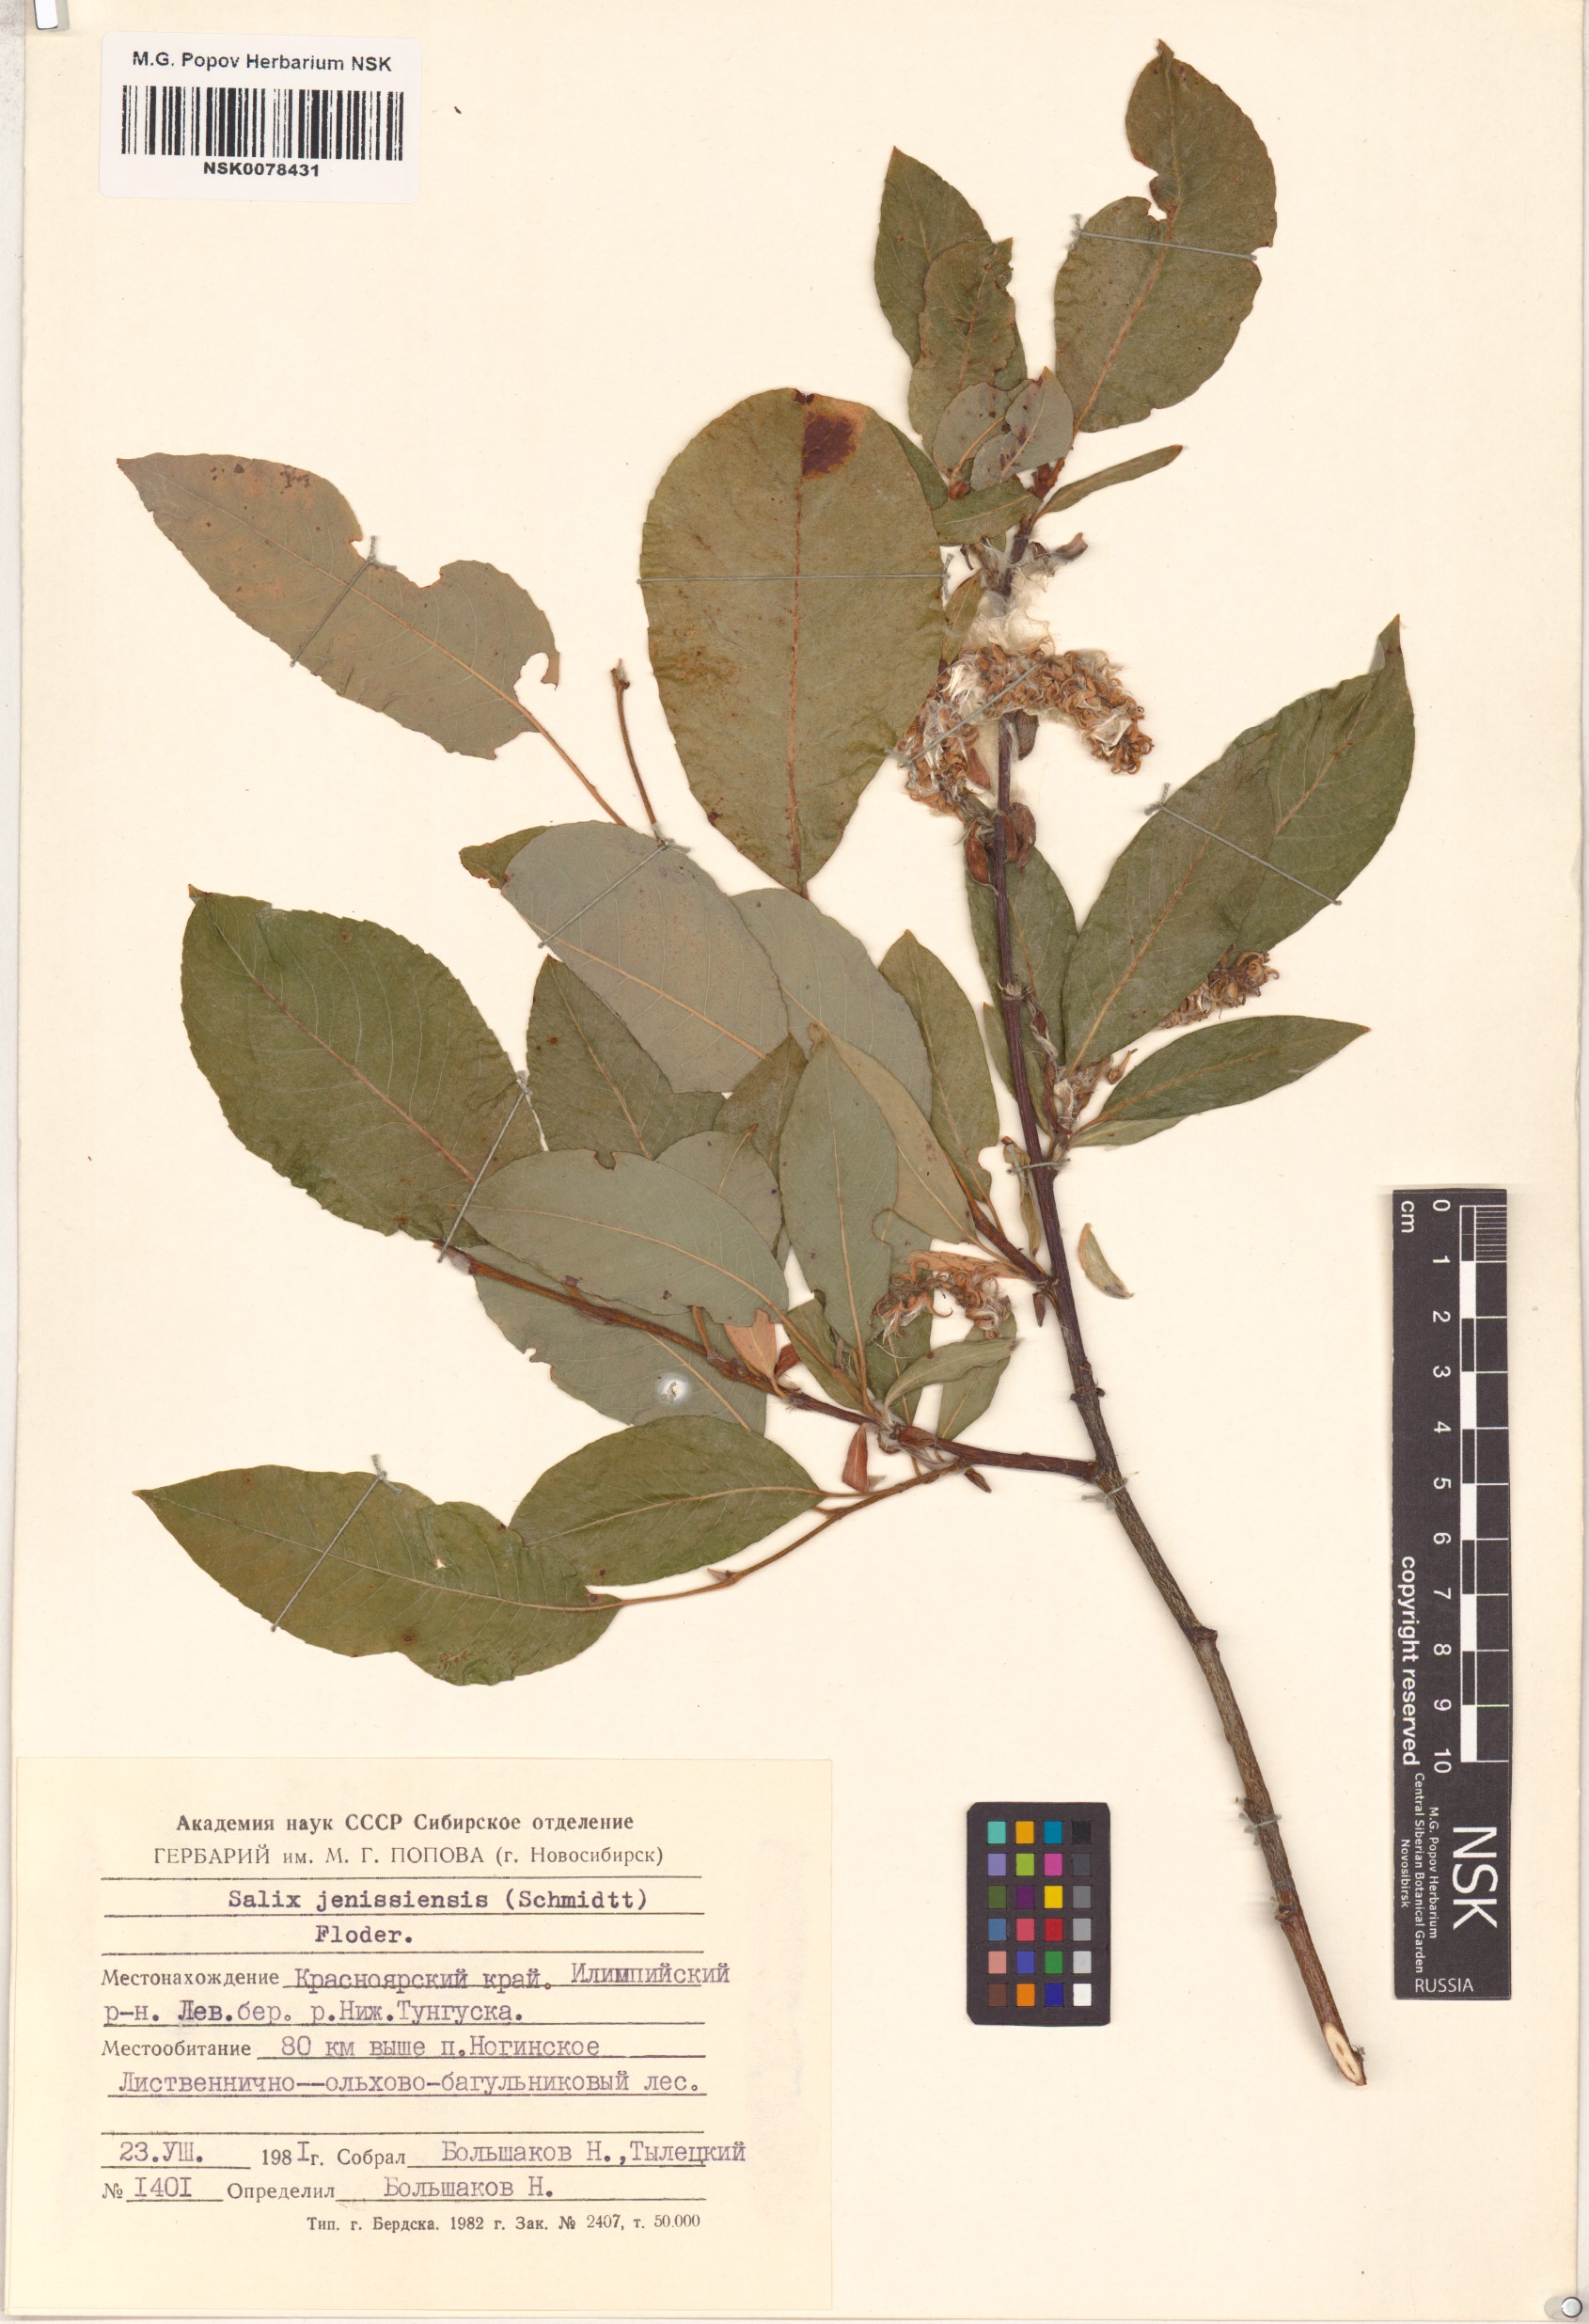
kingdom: Plantae
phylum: Tracheophyta
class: Magnoliopsida
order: Malpighiales
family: Salicaceae
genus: Salix
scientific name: Salix jenisseensis
